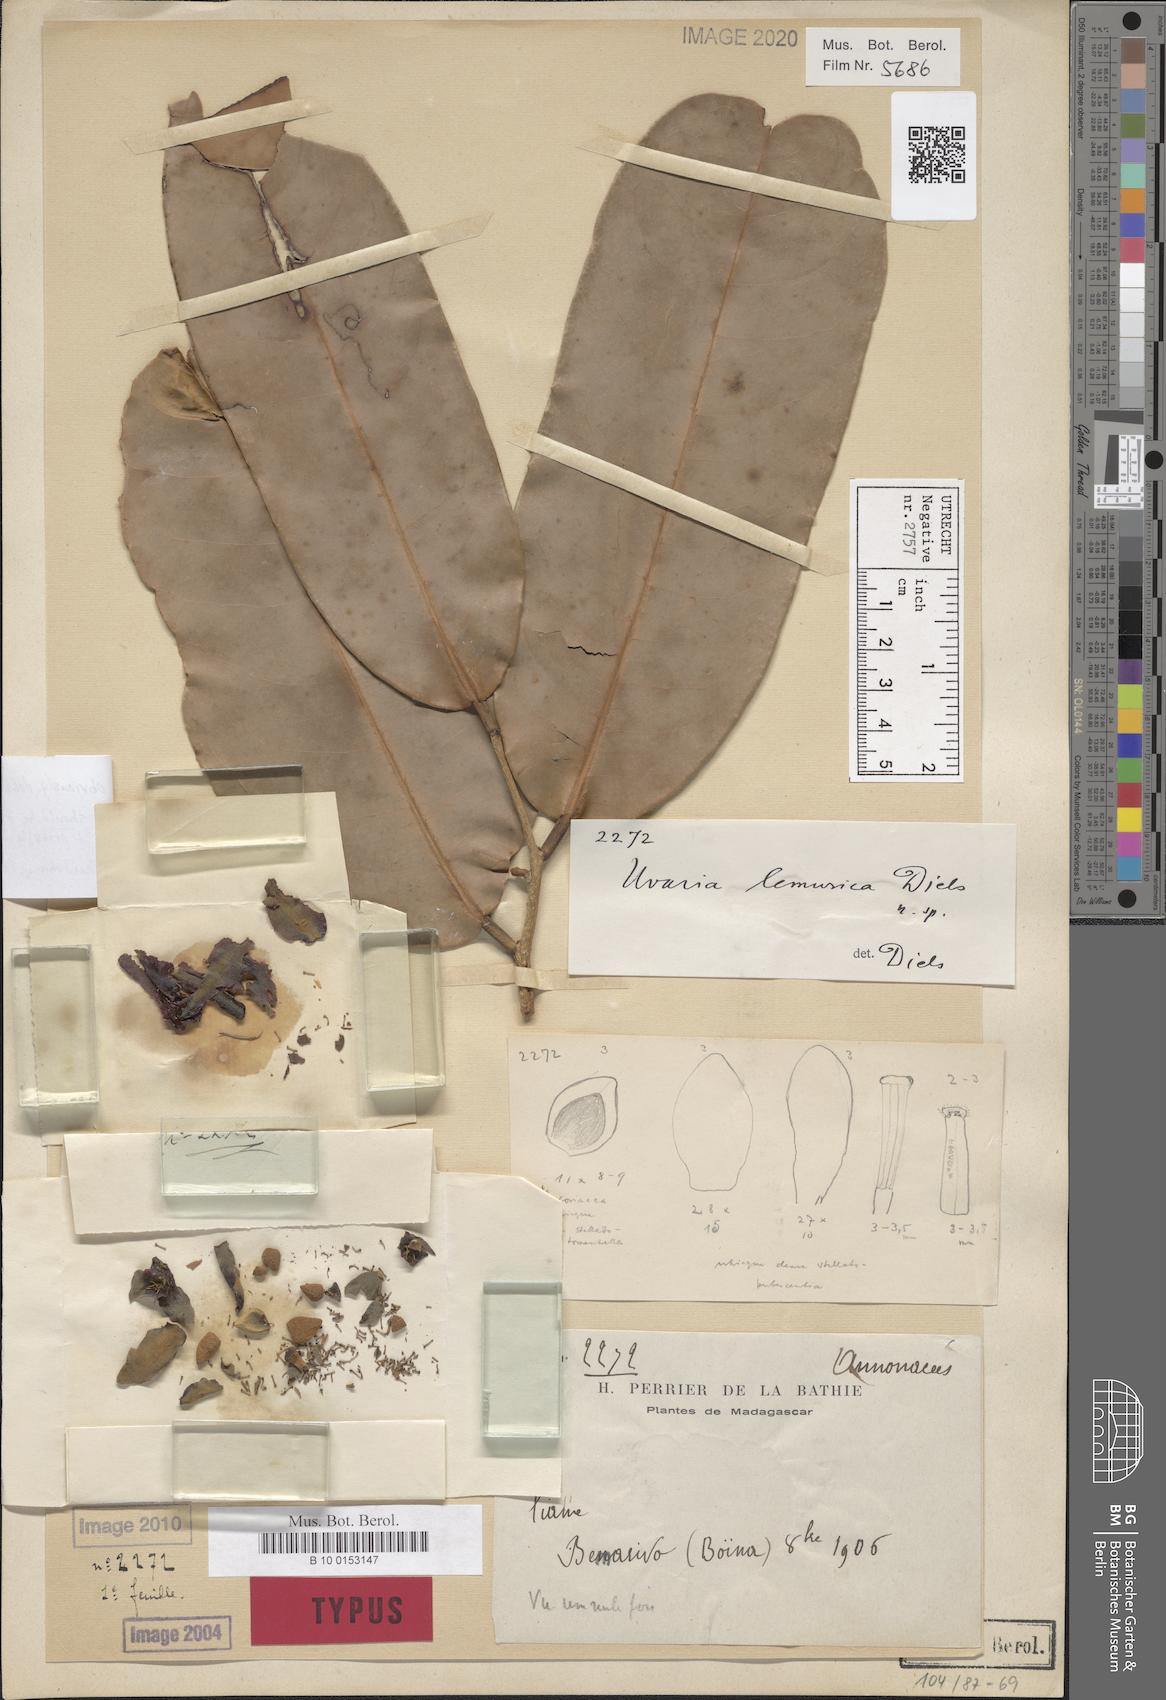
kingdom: Plantae
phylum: Tracheophyta
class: Magnoliopsida
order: Magnoliales
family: Annonaceae
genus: Uvaria
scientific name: Uvaria lemurica
